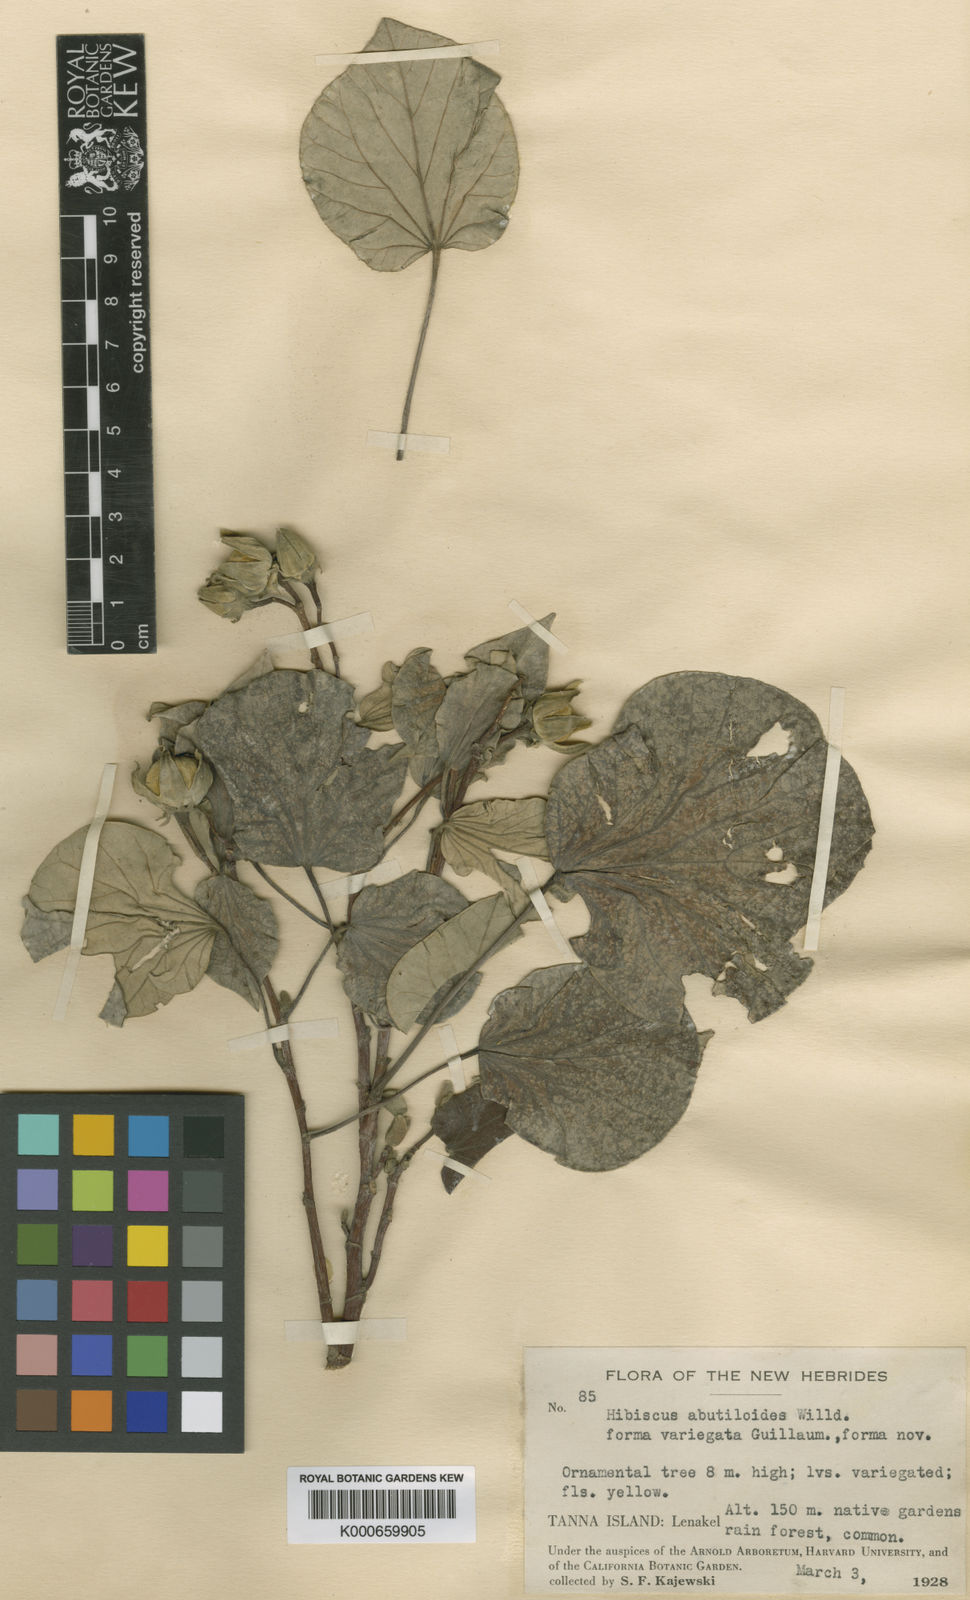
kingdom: Plantae
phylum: Tracheophyta
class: Magnoliopsida
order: Malvales
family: Malvaceae
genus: Talipariti
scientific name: Talipariti tiliaceum
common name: Sea hibiscus
